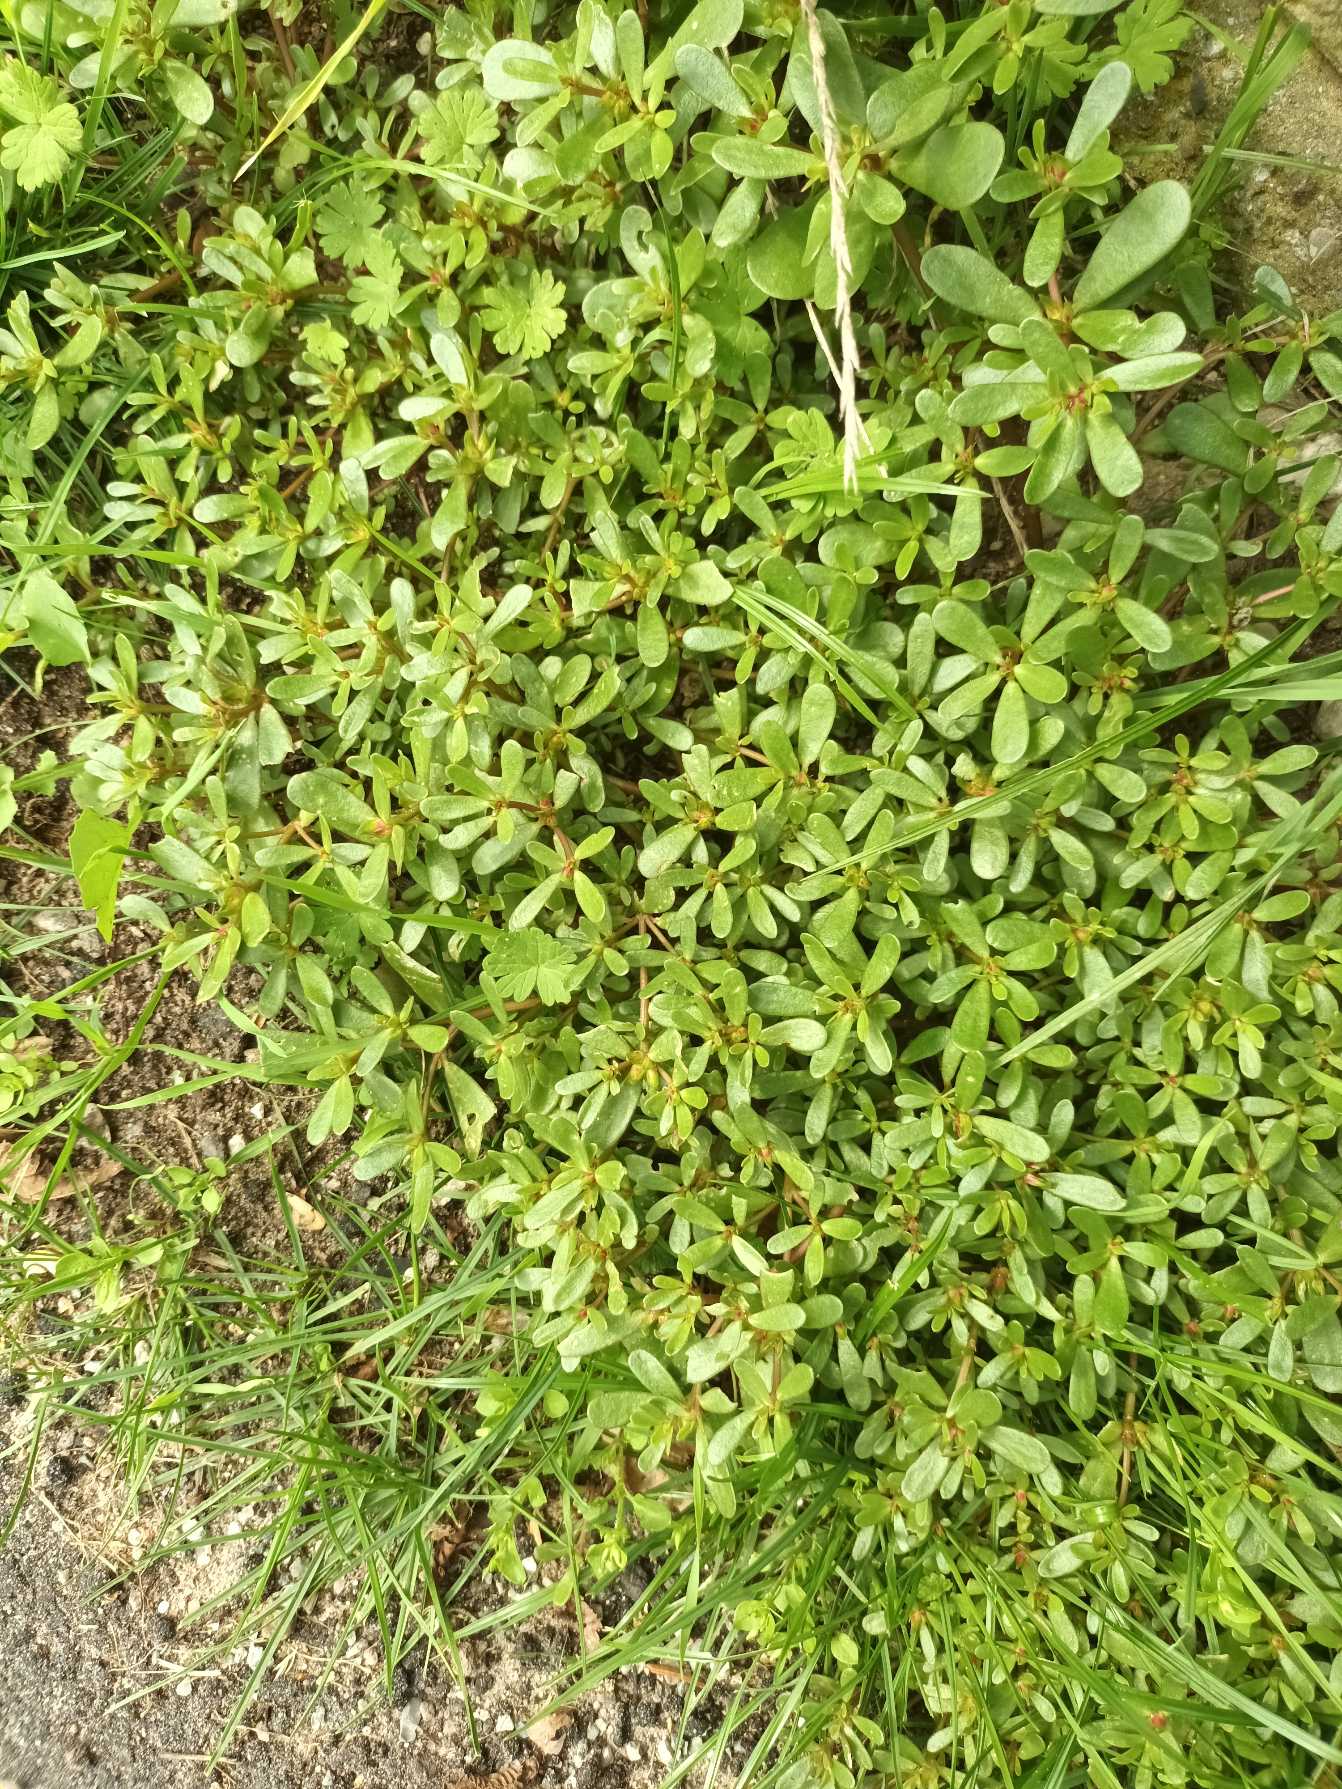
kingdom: Plantae
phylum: Tracheophyta
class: Magnoliopsida
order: Caryophyllales
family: Portulacaceae
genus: Portulaca
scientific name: Portulaca oleracea
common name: Portulak
